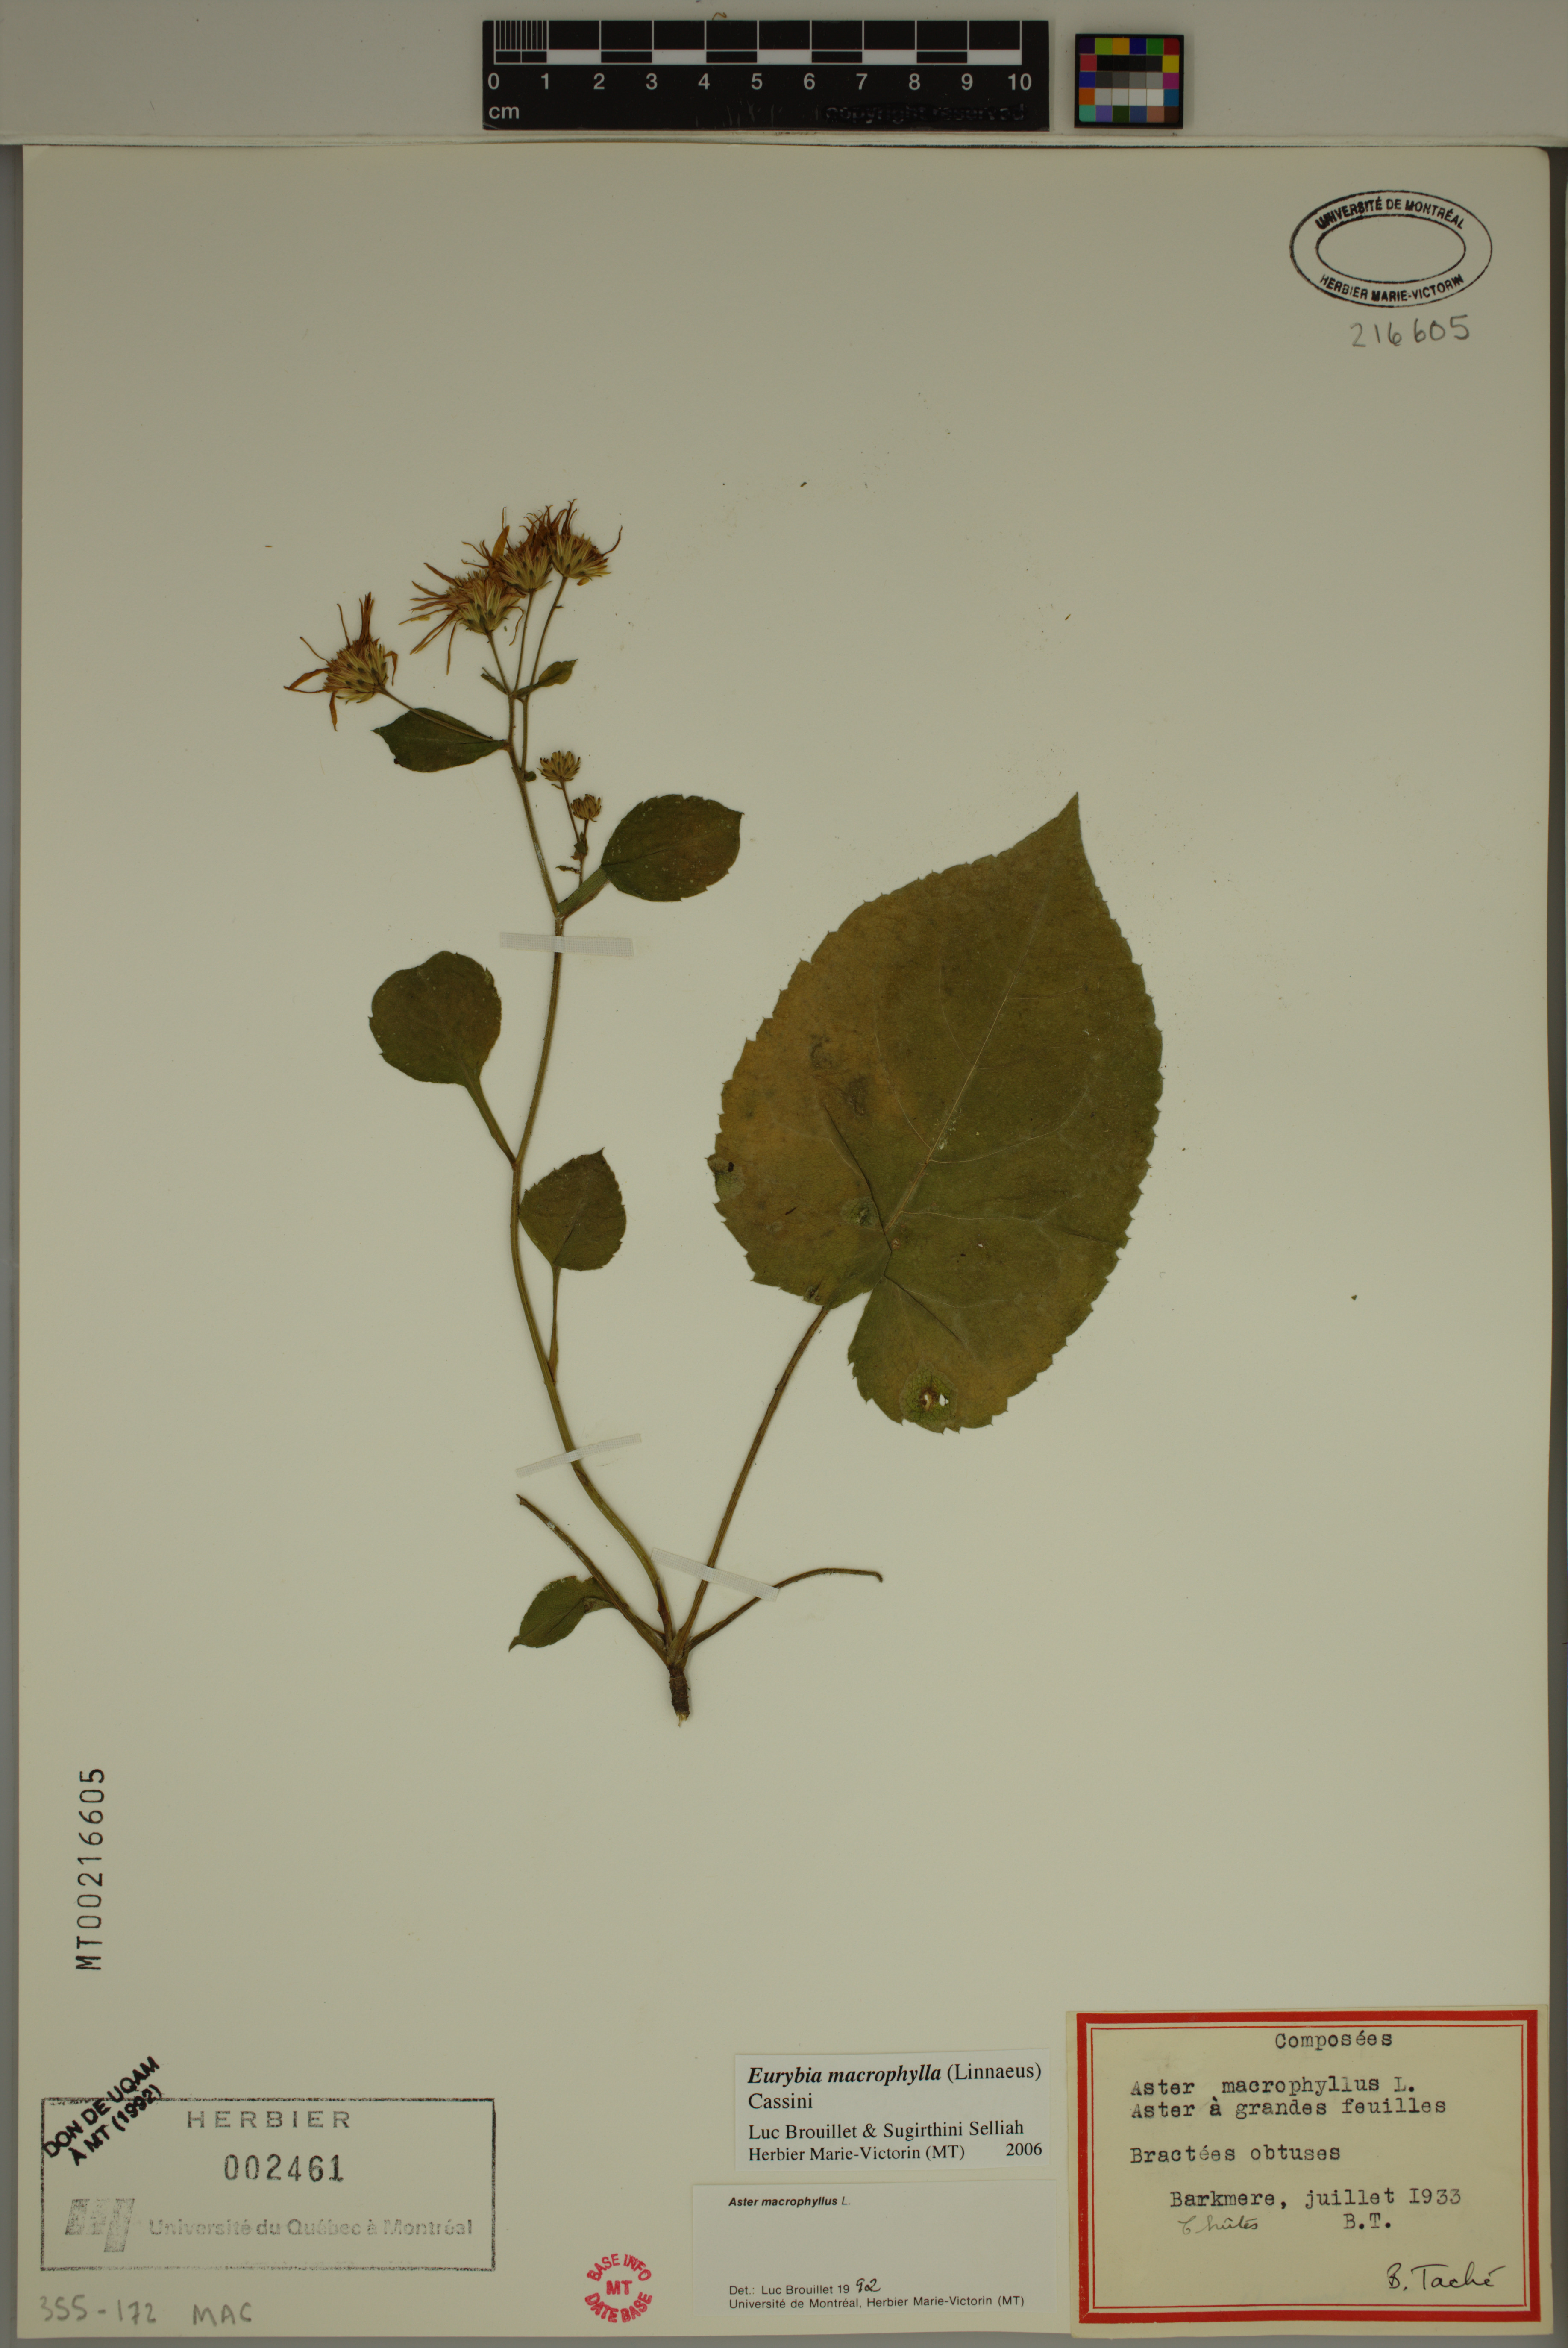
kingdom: Plantae
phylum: Tracheophyta
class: Magnoliopsida
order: Asterales
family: Asteraceae
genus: Eurybia
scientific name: Eurybia macrophylla
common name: Big-leaved aster
